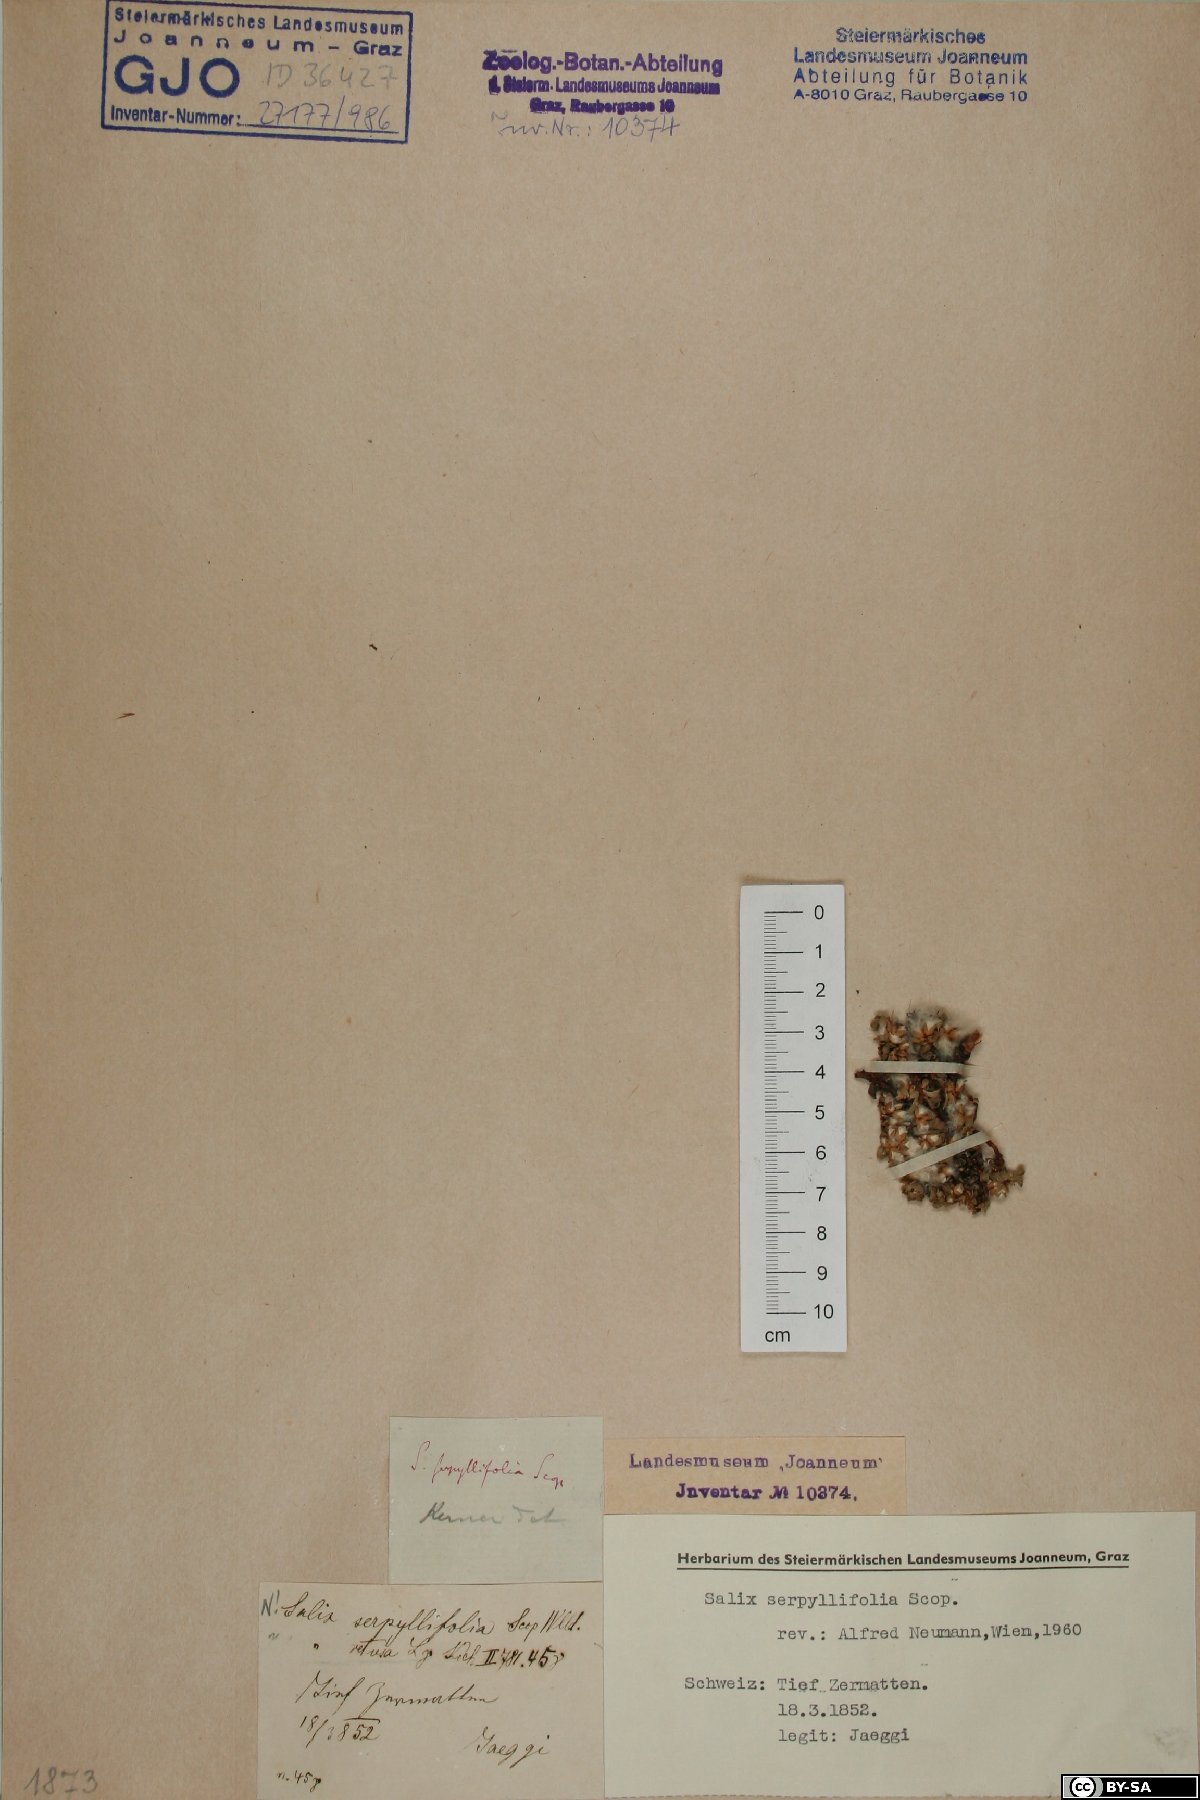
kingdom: Plantae
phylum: Tracheophyta
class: Magnoliopsida
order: Malpighiales
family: Salicaceae
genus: Salix
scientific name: Salix serpillifolia
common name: Thyme-leaf willow
